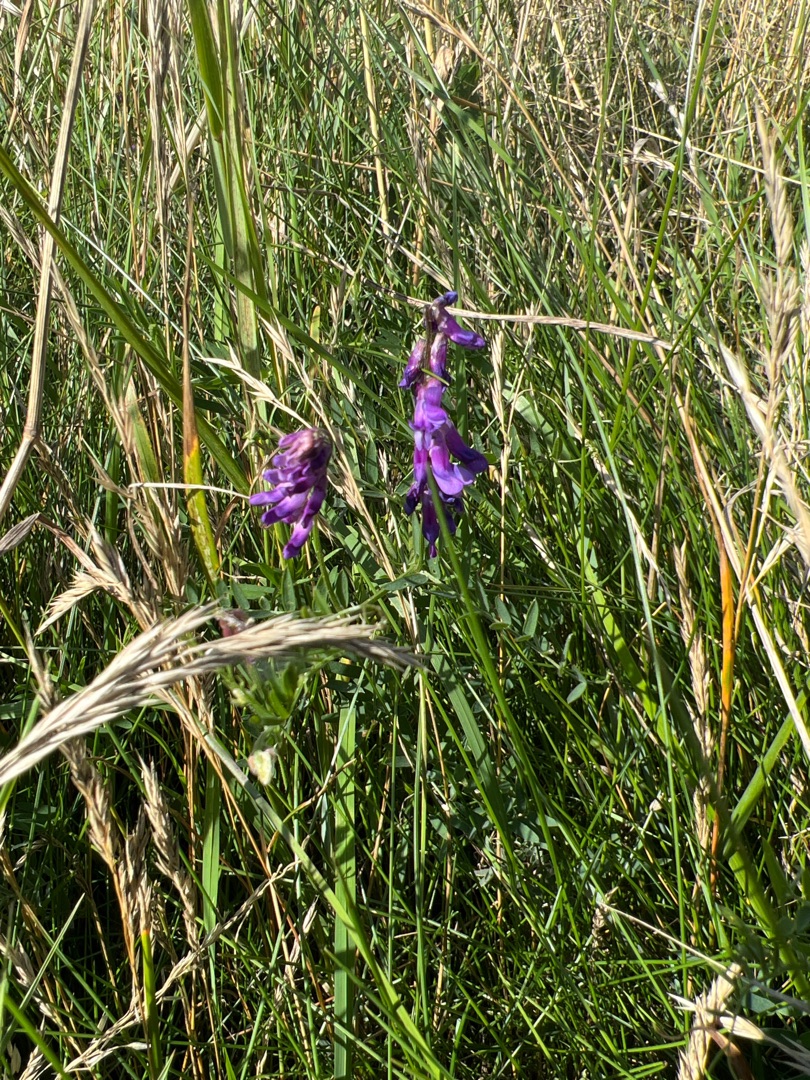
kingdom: Plantae
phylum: Tracheophyta
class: Magnoliopsida
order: Fabales
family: Fabaceae
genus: Vicia
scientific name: Vicia cracca
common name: Muse-vikke
